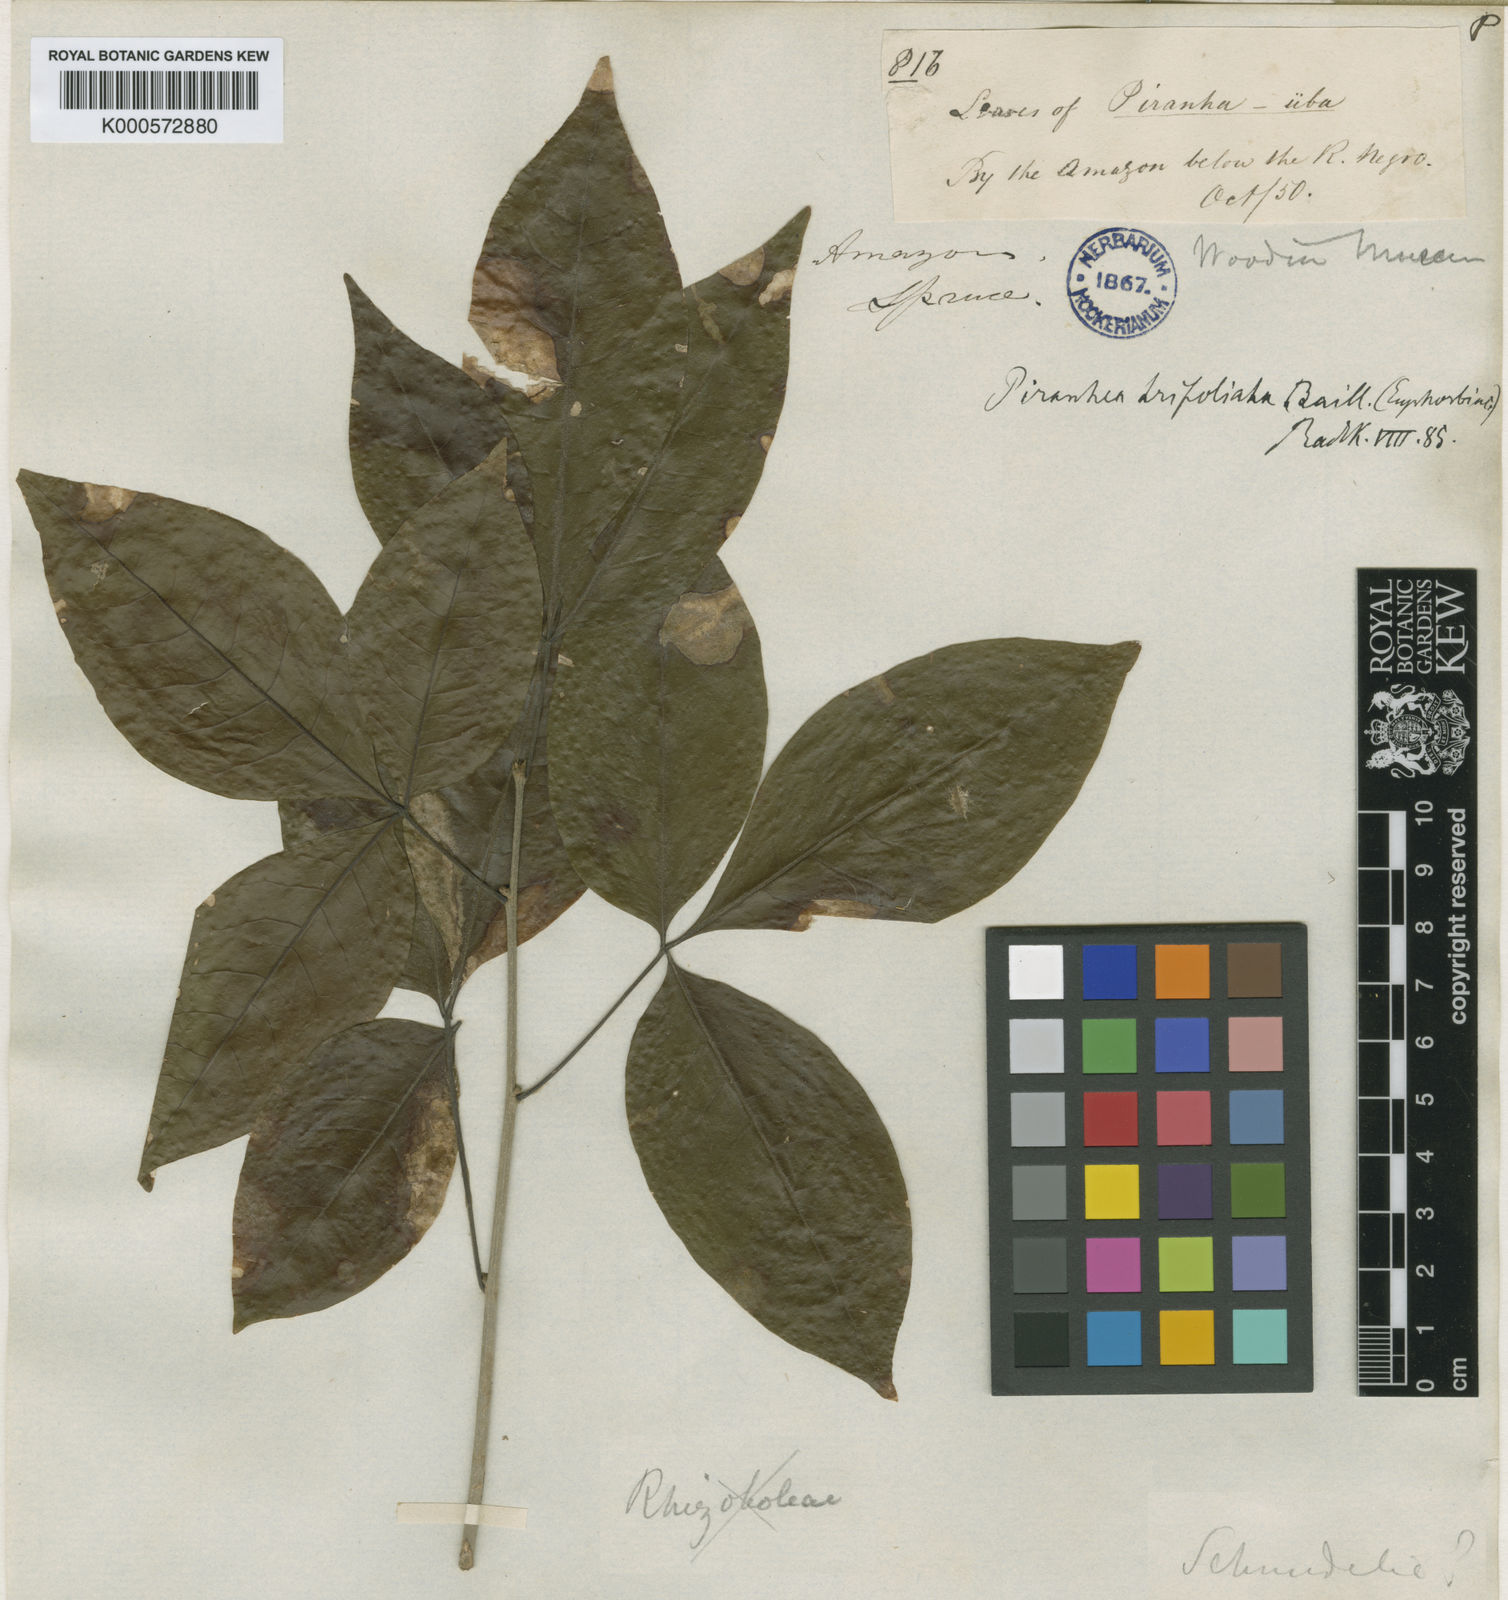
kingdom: Plantae
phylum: Tracheophyta
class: Magnoliopsida
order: Malpighiales
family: Picrodendraceae
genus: Piranhea
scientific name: Piranhea trifoliolata
